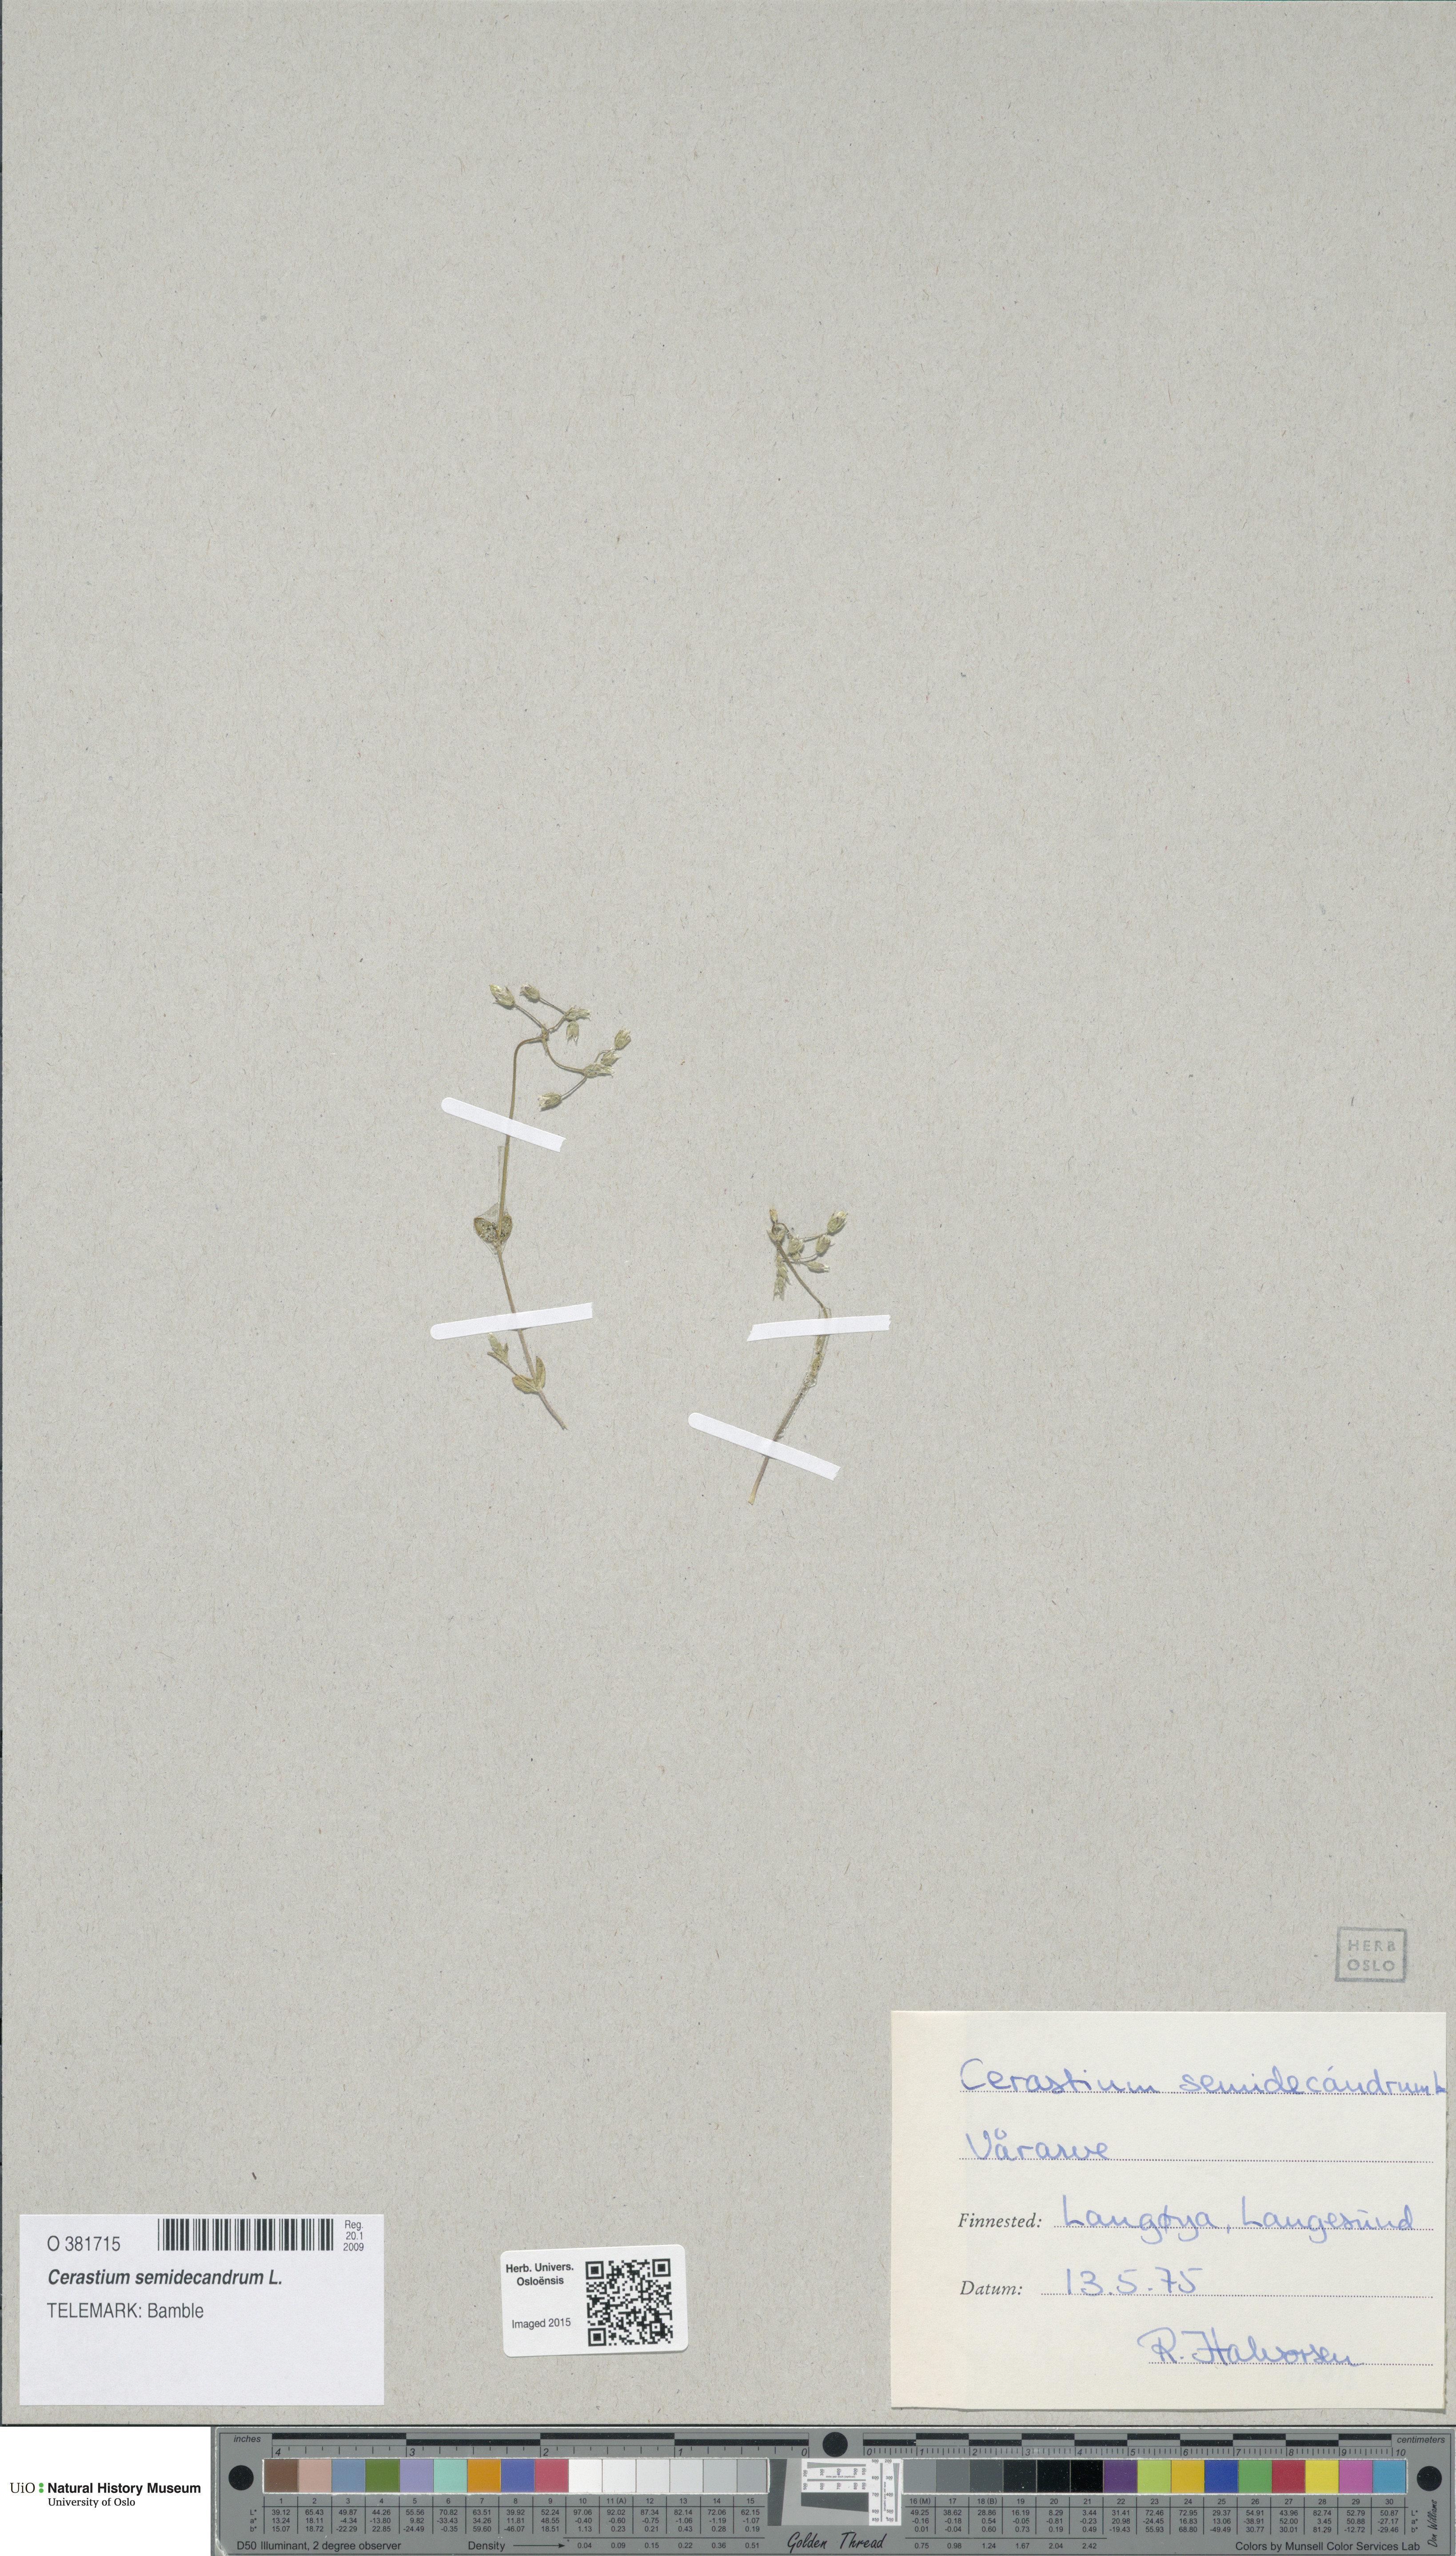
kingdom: Plantae
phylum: Tracheophyta
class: Magnoliopsida
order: Caryophyllales
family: Caryophyllaceae
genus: Cerastium
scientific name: Cerastium semidecandrum
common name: Little mouse-ear
